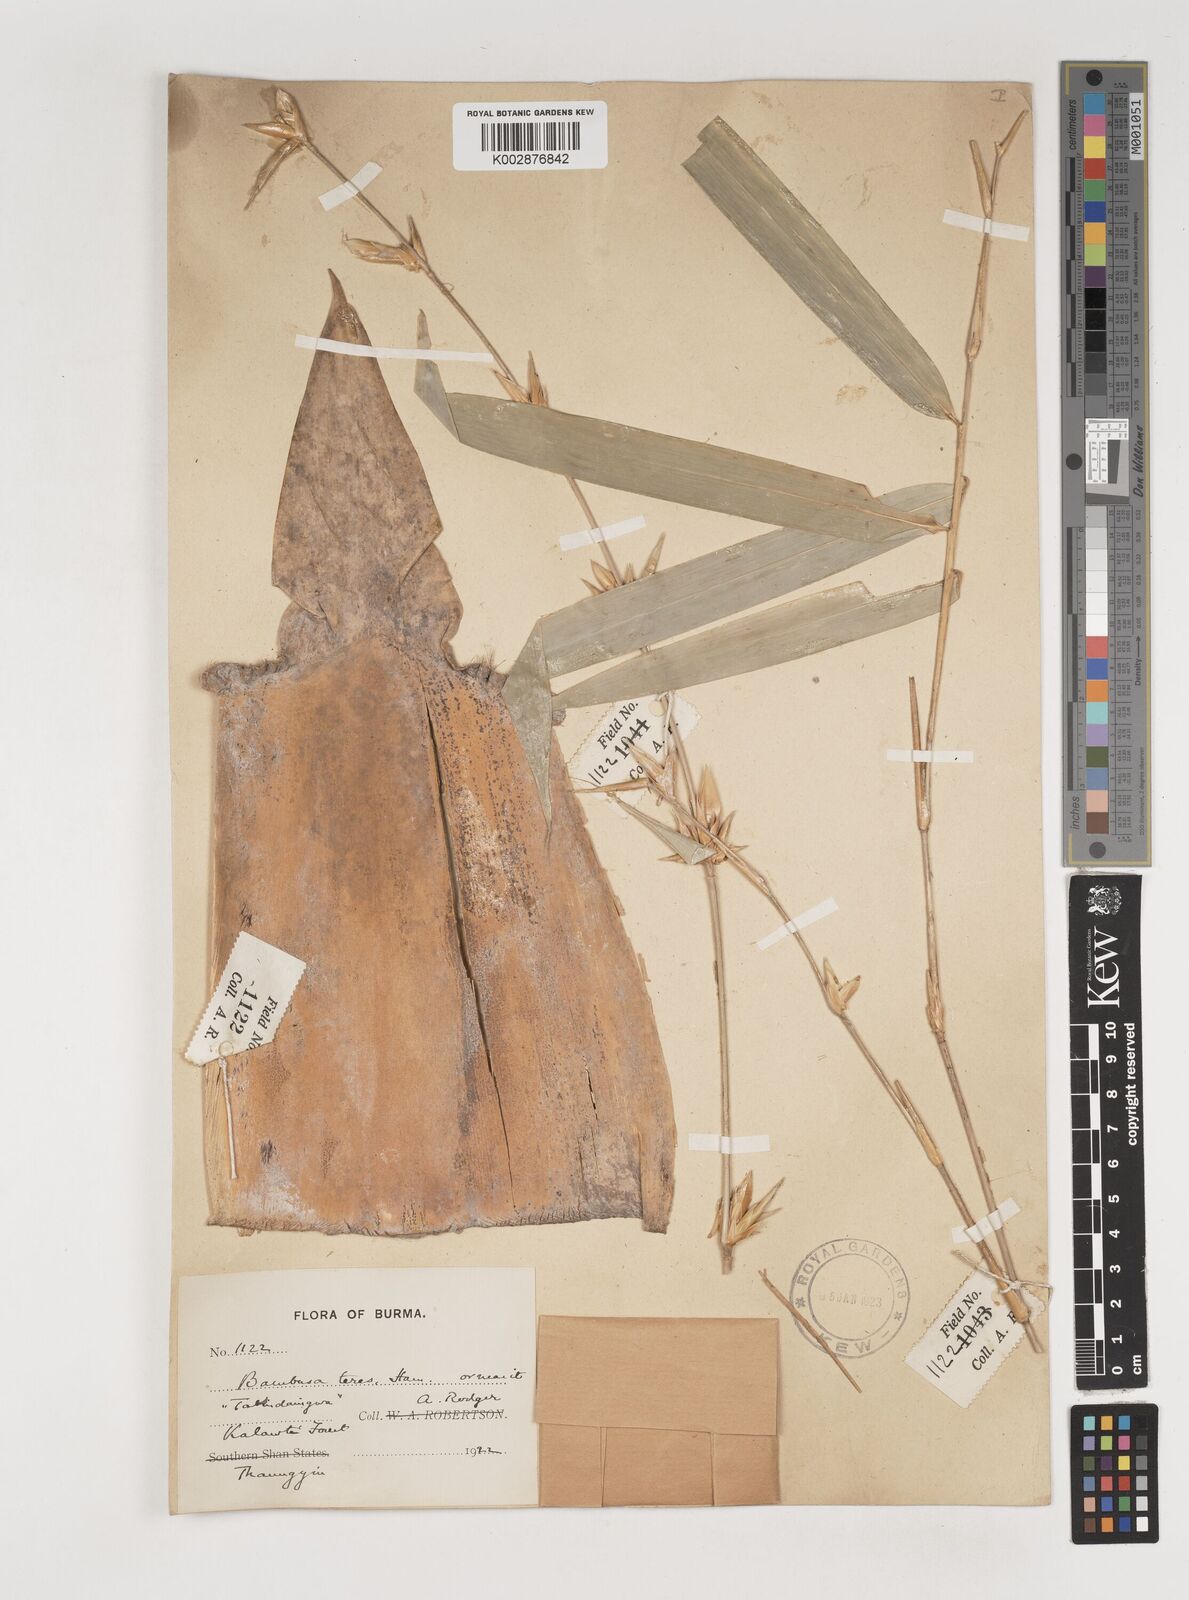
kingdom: Plantae
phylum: Tracheophyta
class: Liliopsida
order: Poales
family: Poaceae
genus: Bambusa
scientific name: Bambusa teres
